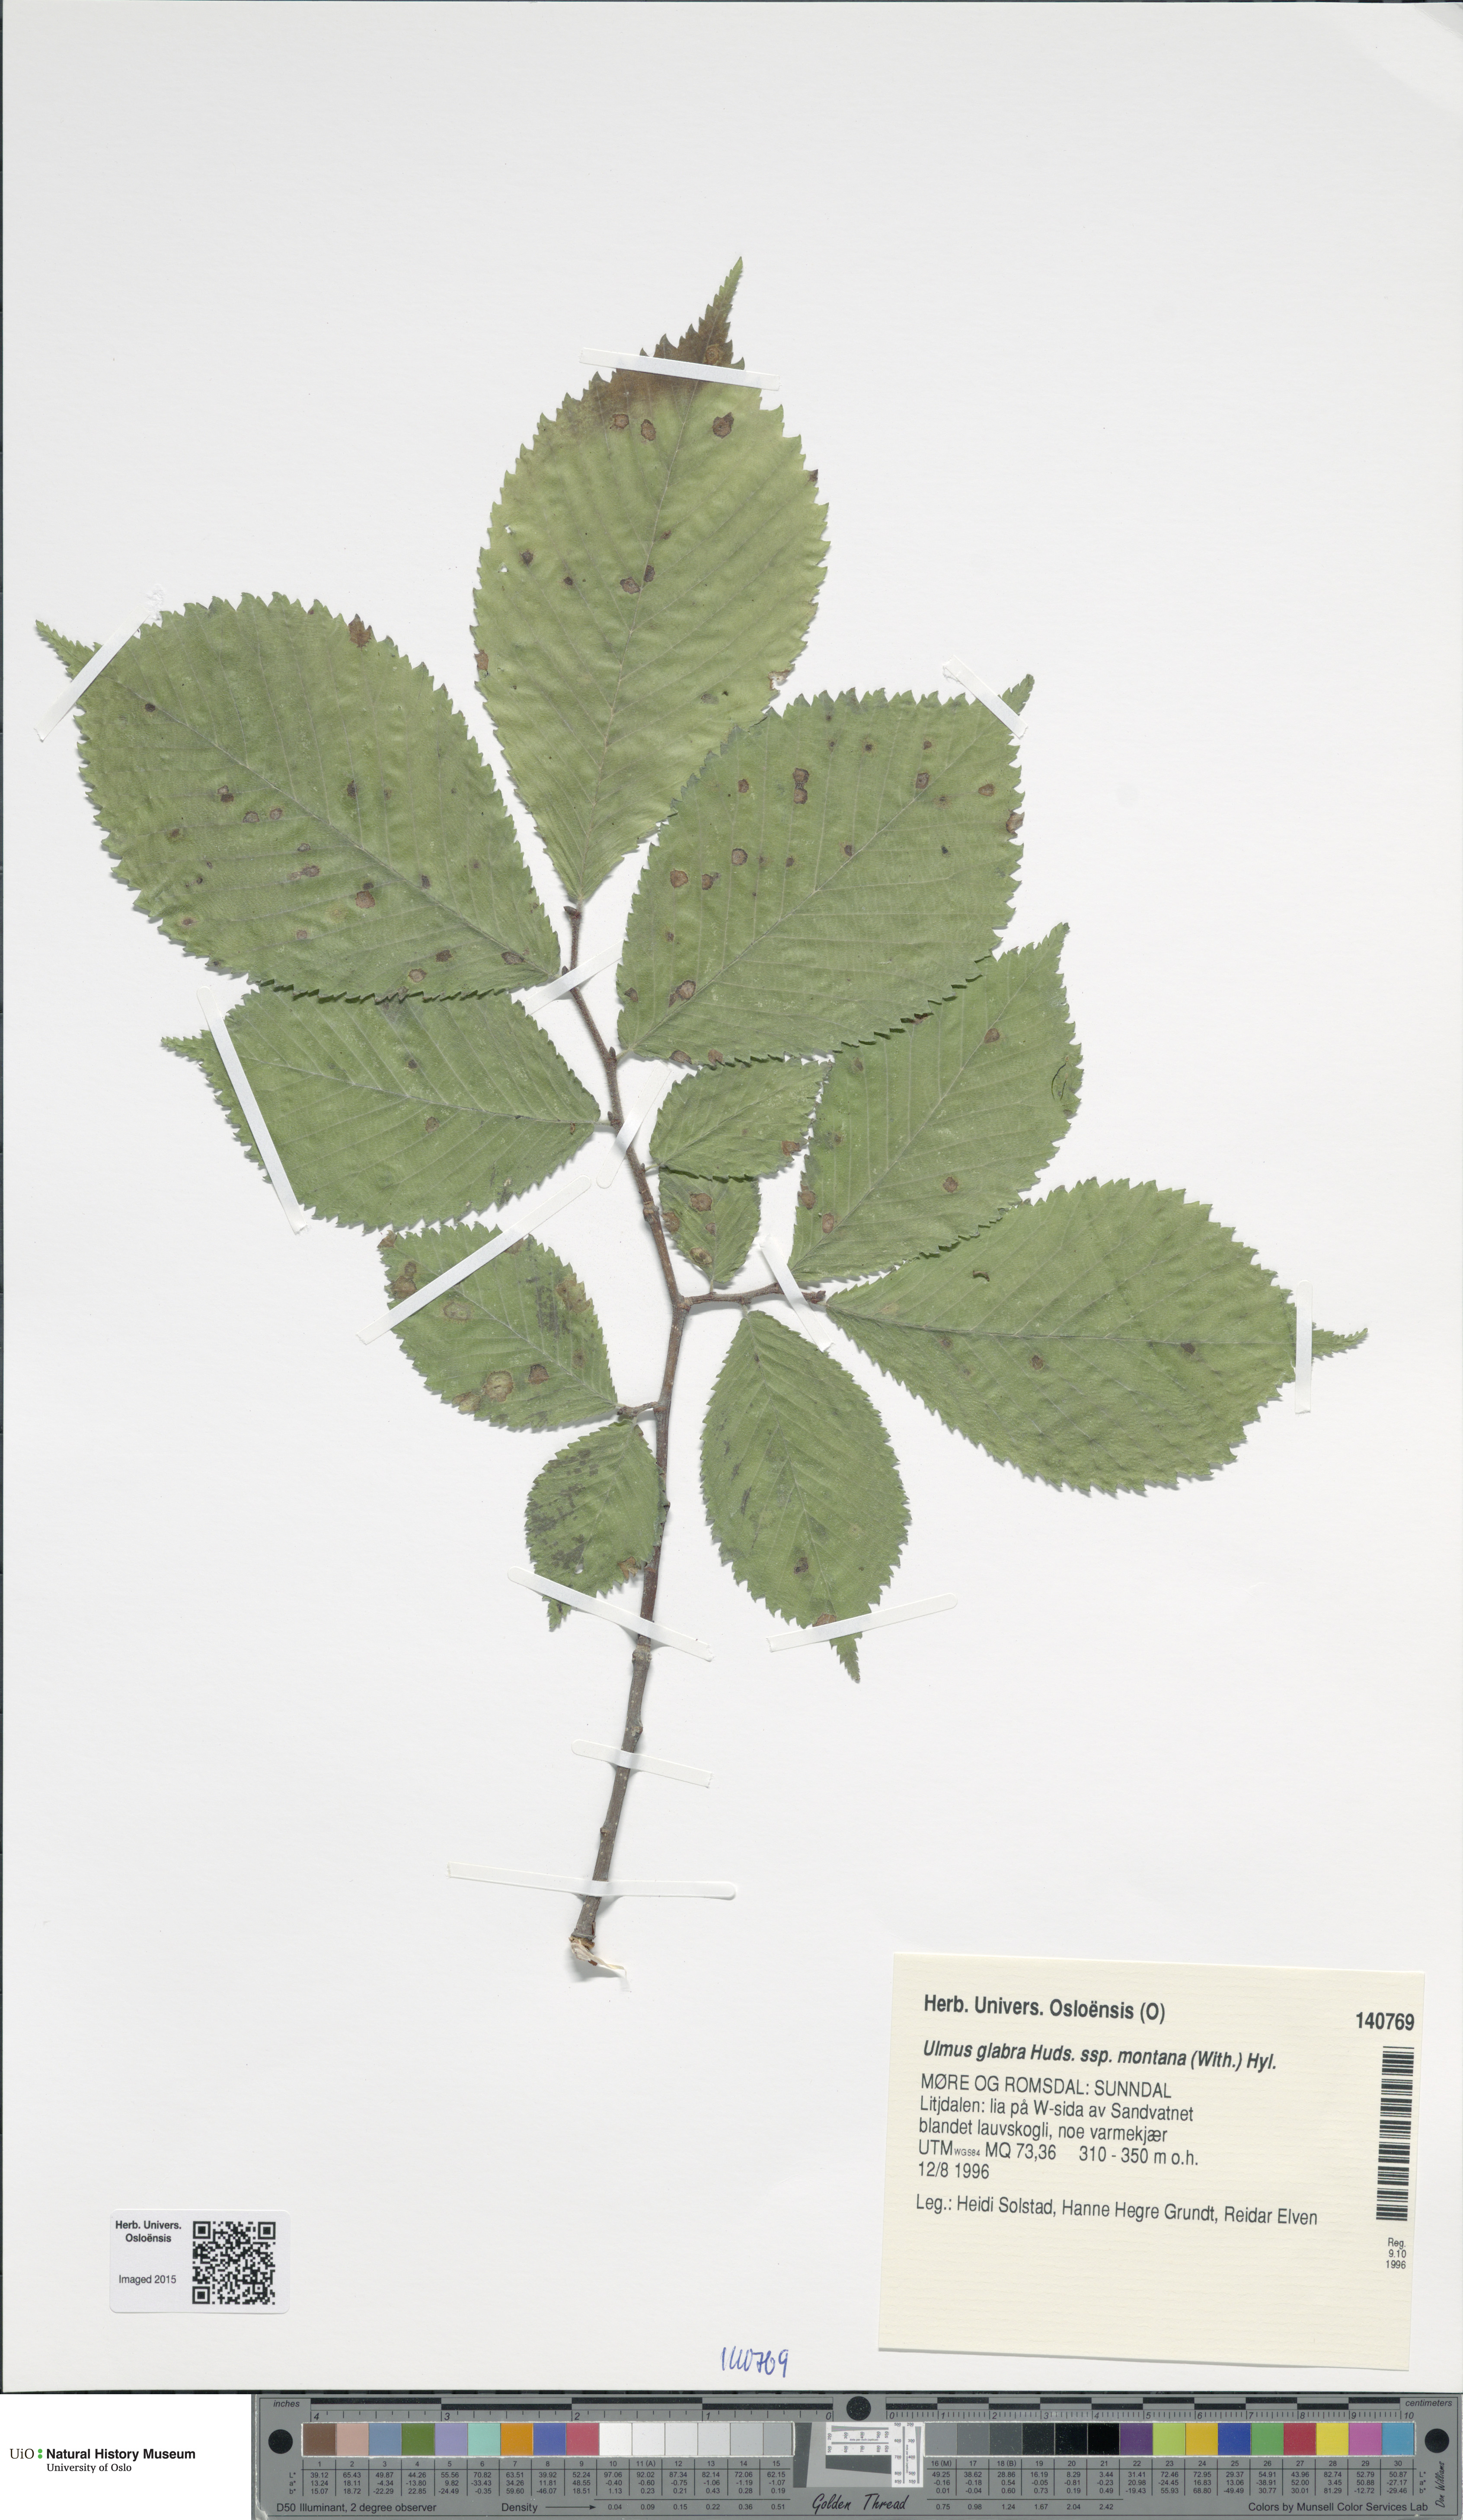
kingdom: Plantae
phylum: Tracheophyta
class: Magnoliopsida
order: Rosales
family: Ulmaceae
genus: Ulmus
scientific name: Ulmus glabra
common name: Wych elm
